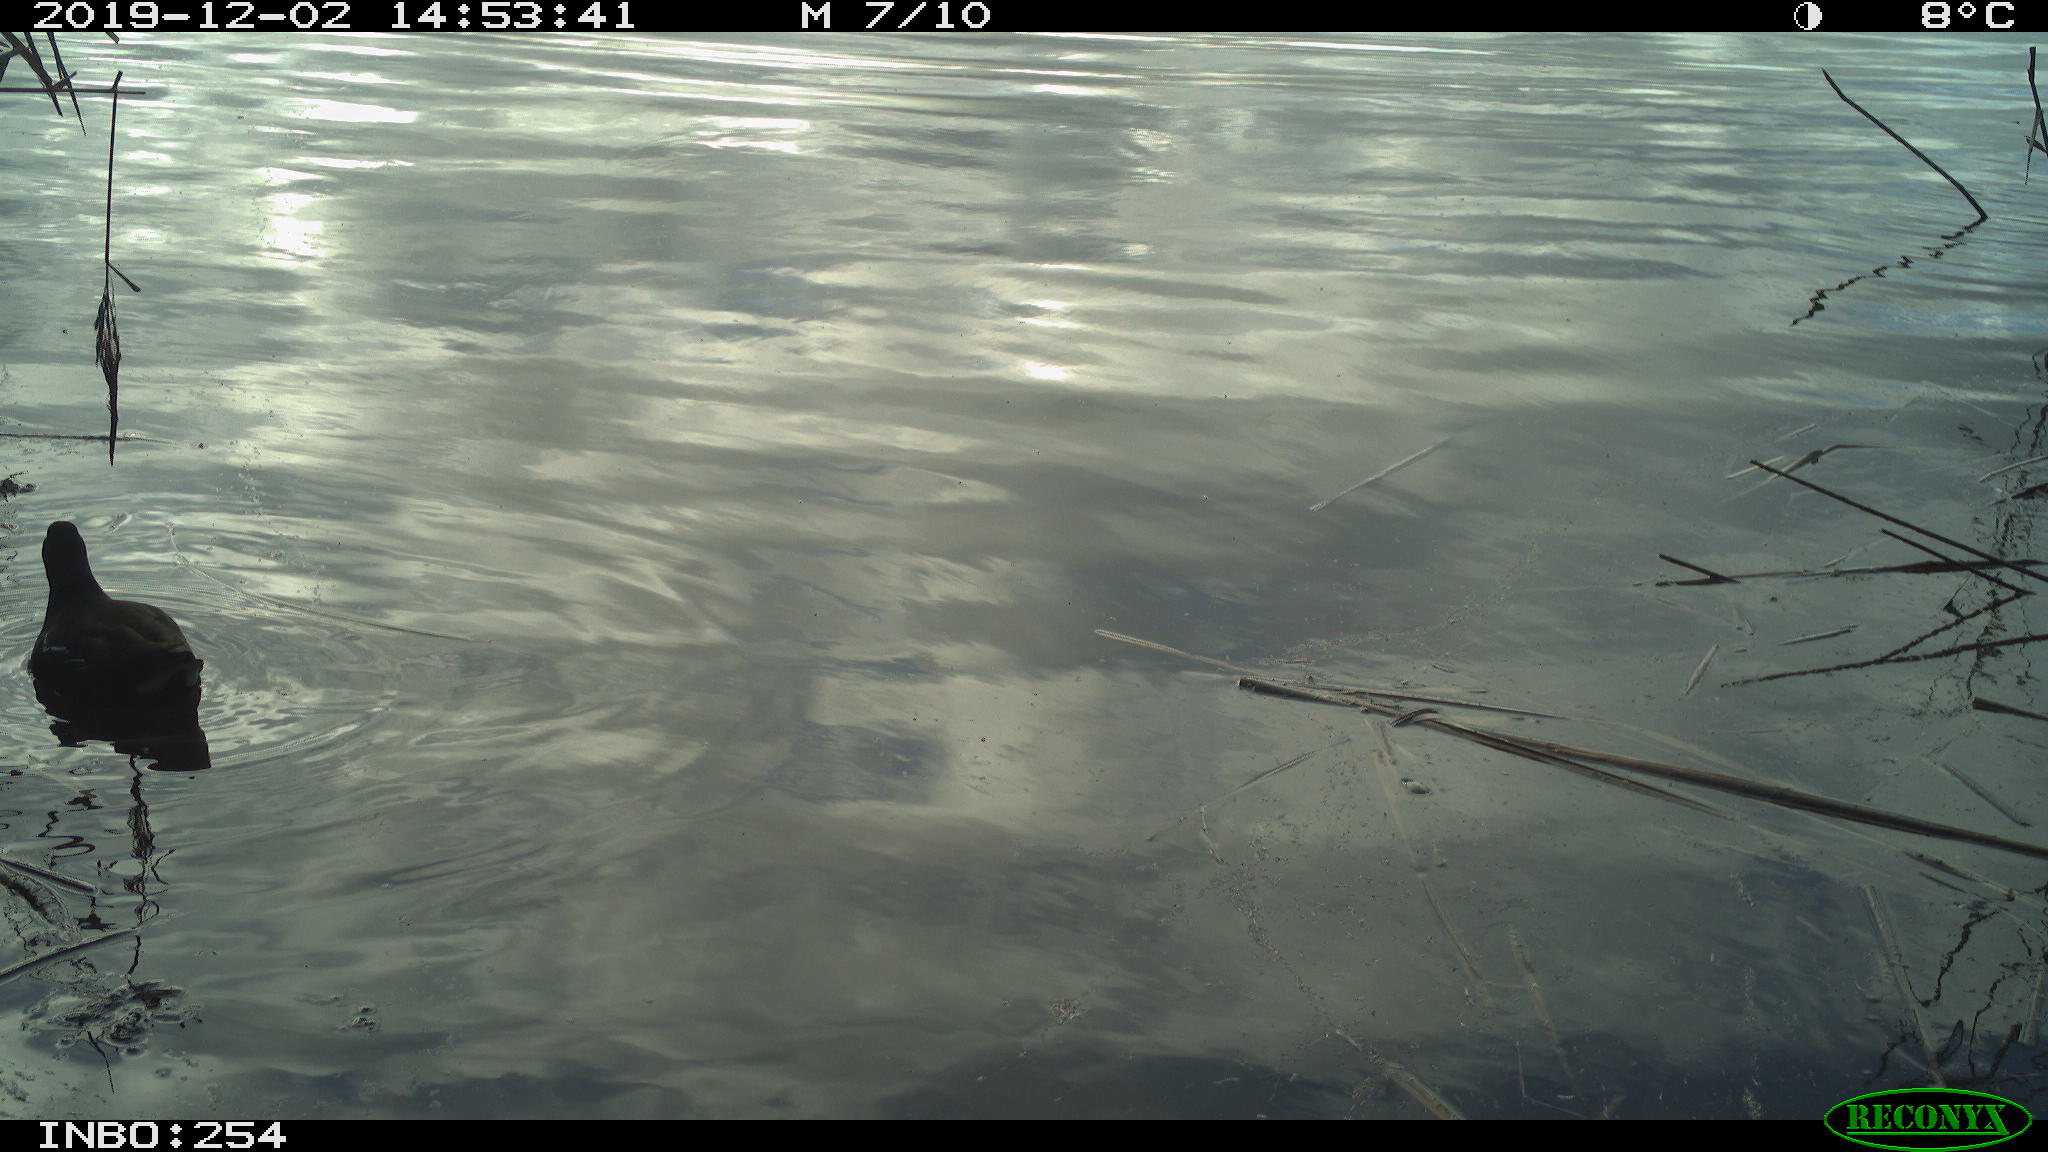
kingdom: Animalia
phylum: Chordata
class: Aves
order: Gruiformes
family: Rallidae
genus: Gallinula
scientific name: Gallinula chloropus
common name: Common moorhen
